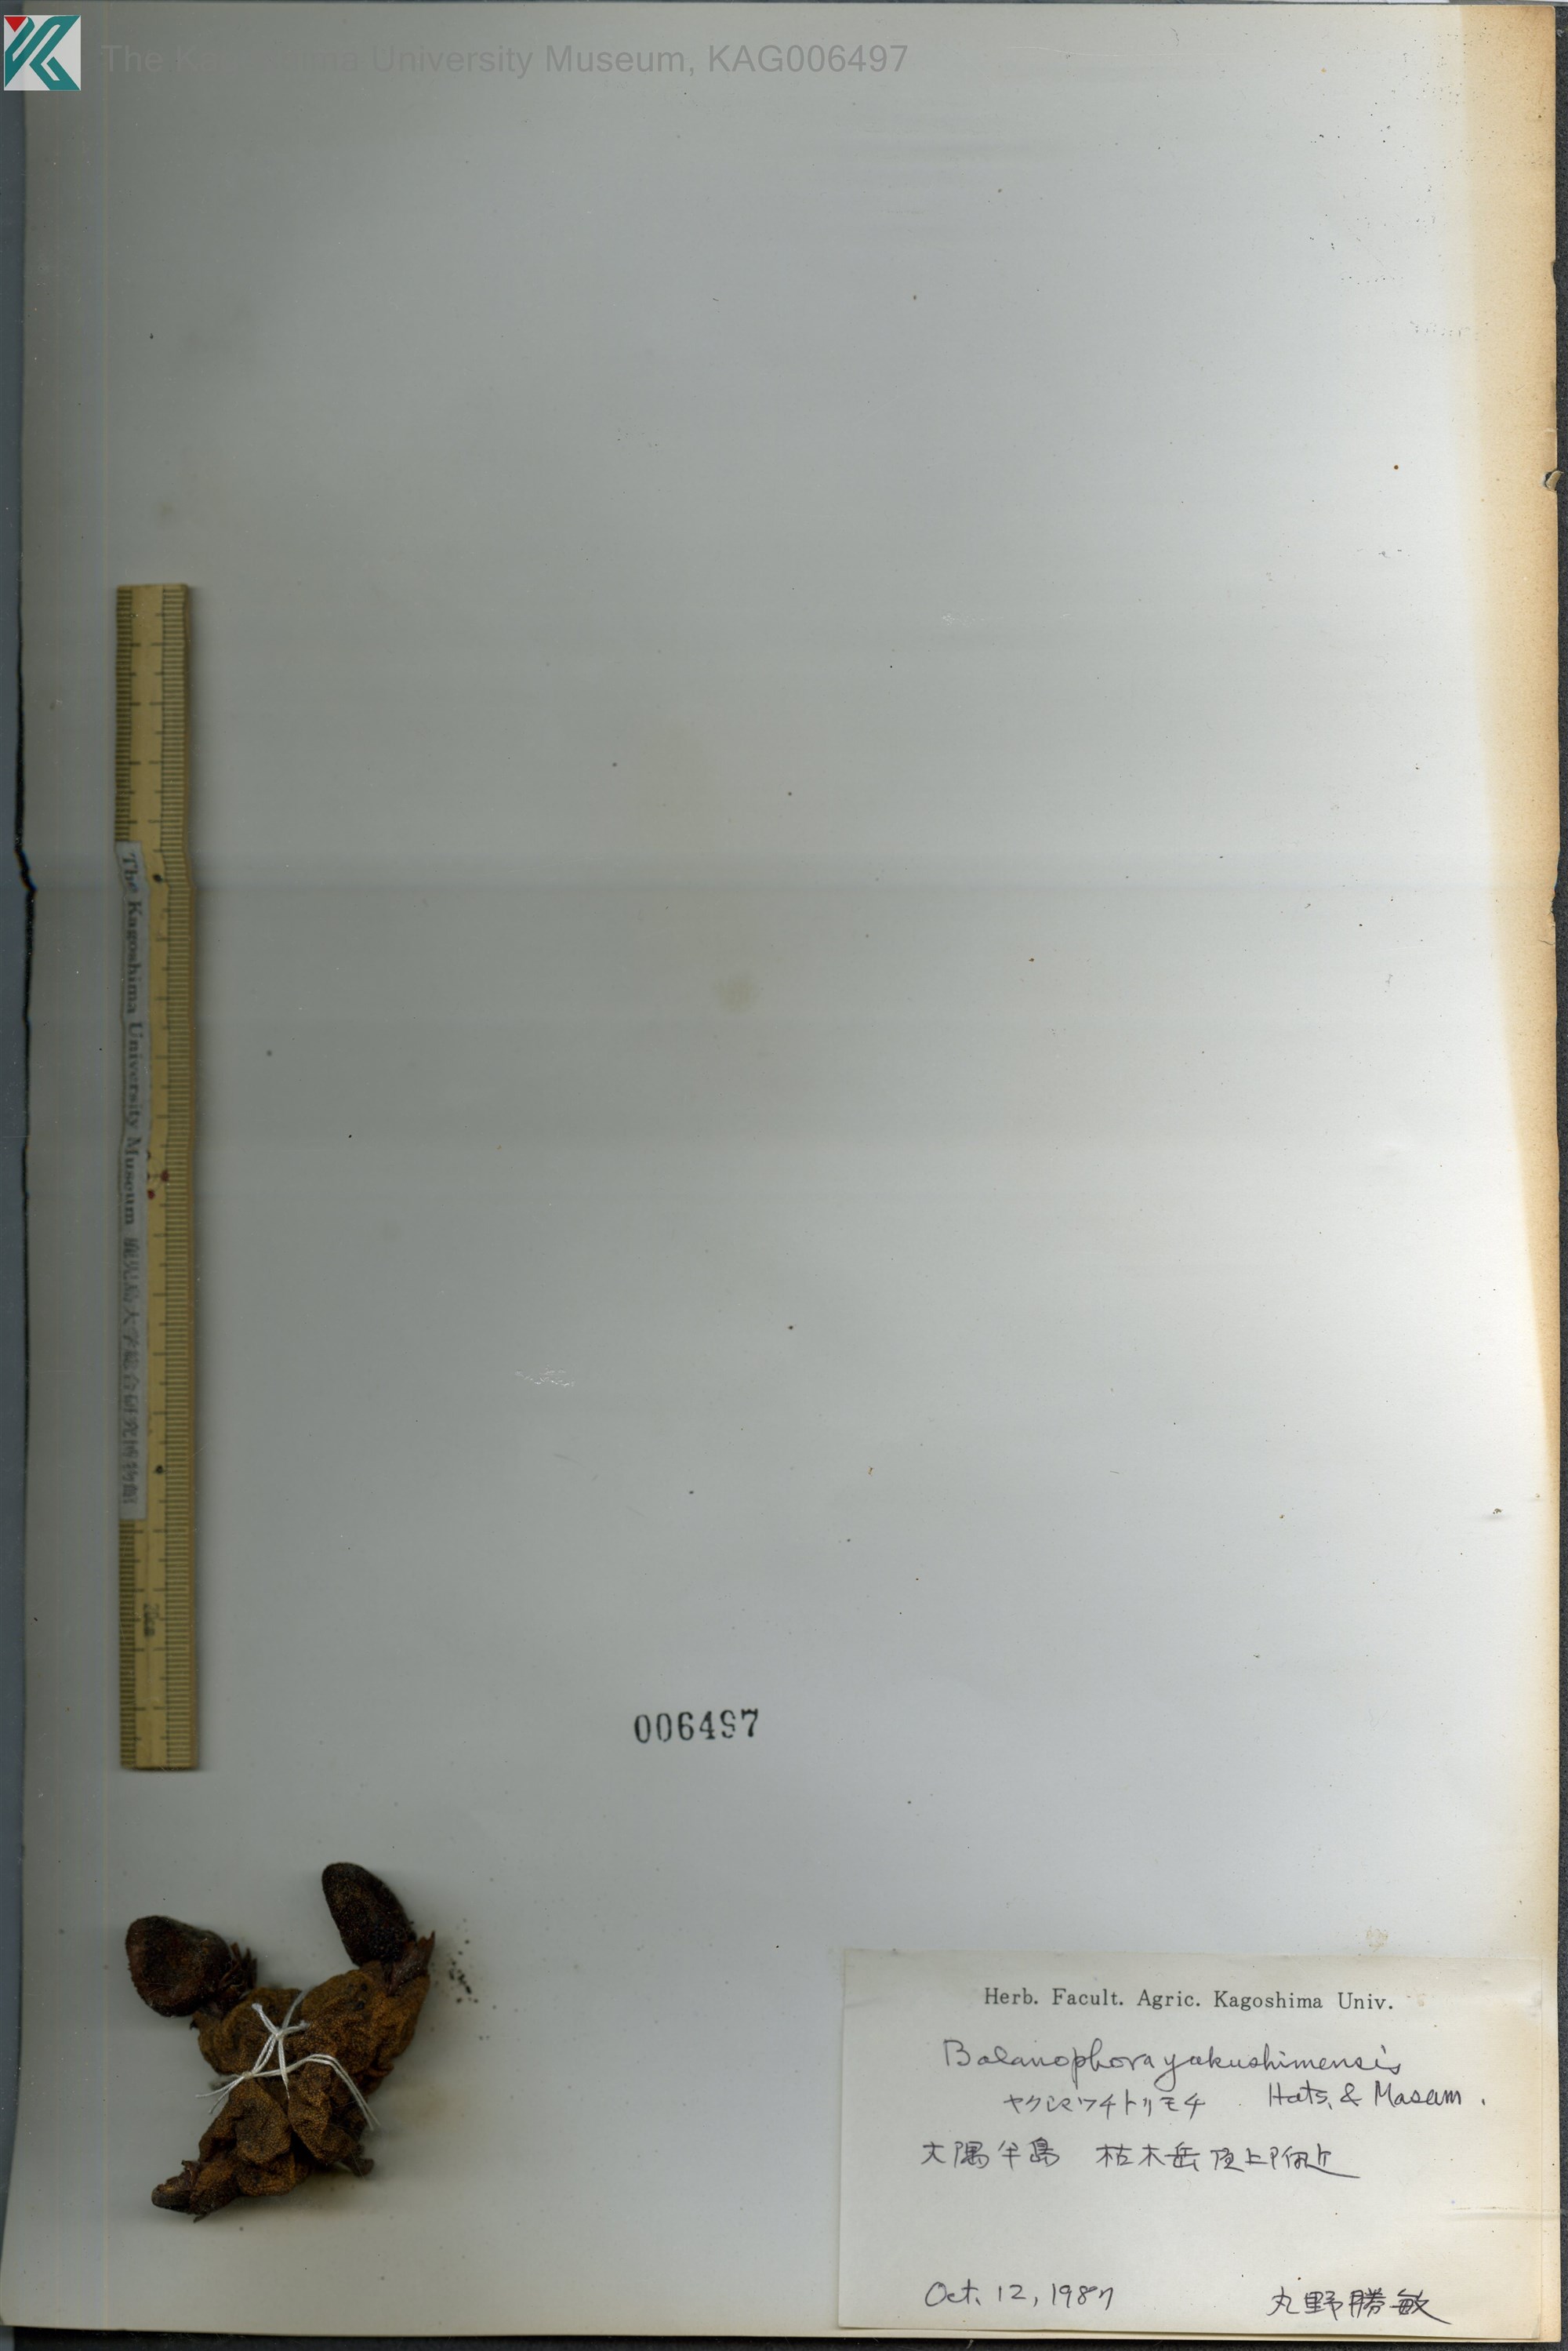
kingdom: Plantae
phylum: Tracheophyta
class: Magnoliopsida
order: Santalales
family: Balanophoraceae
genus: Balanophora
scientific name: Balanophora yakushimensis
